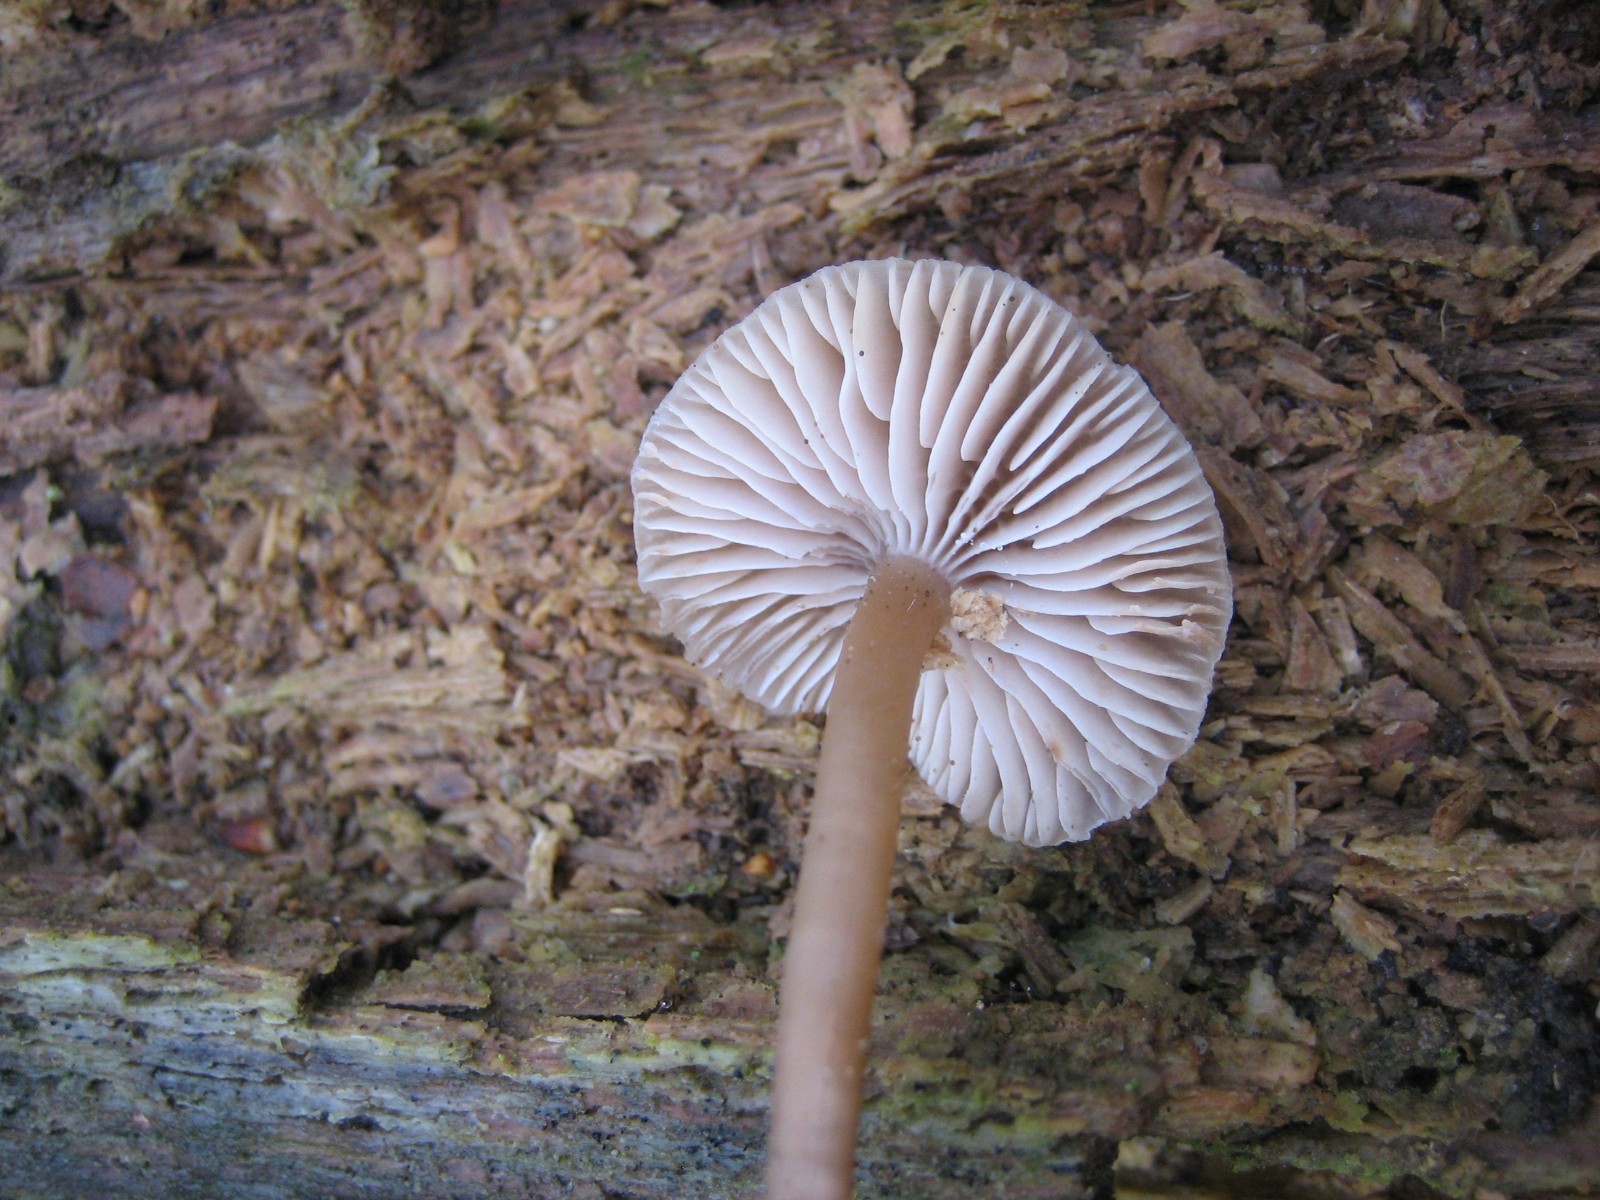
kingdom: Fungi
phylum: Basidiomycota
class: Agaricomycetes
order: Agaricales
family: Mycenaceae
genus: Mycena
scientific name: Mycena galericulata
